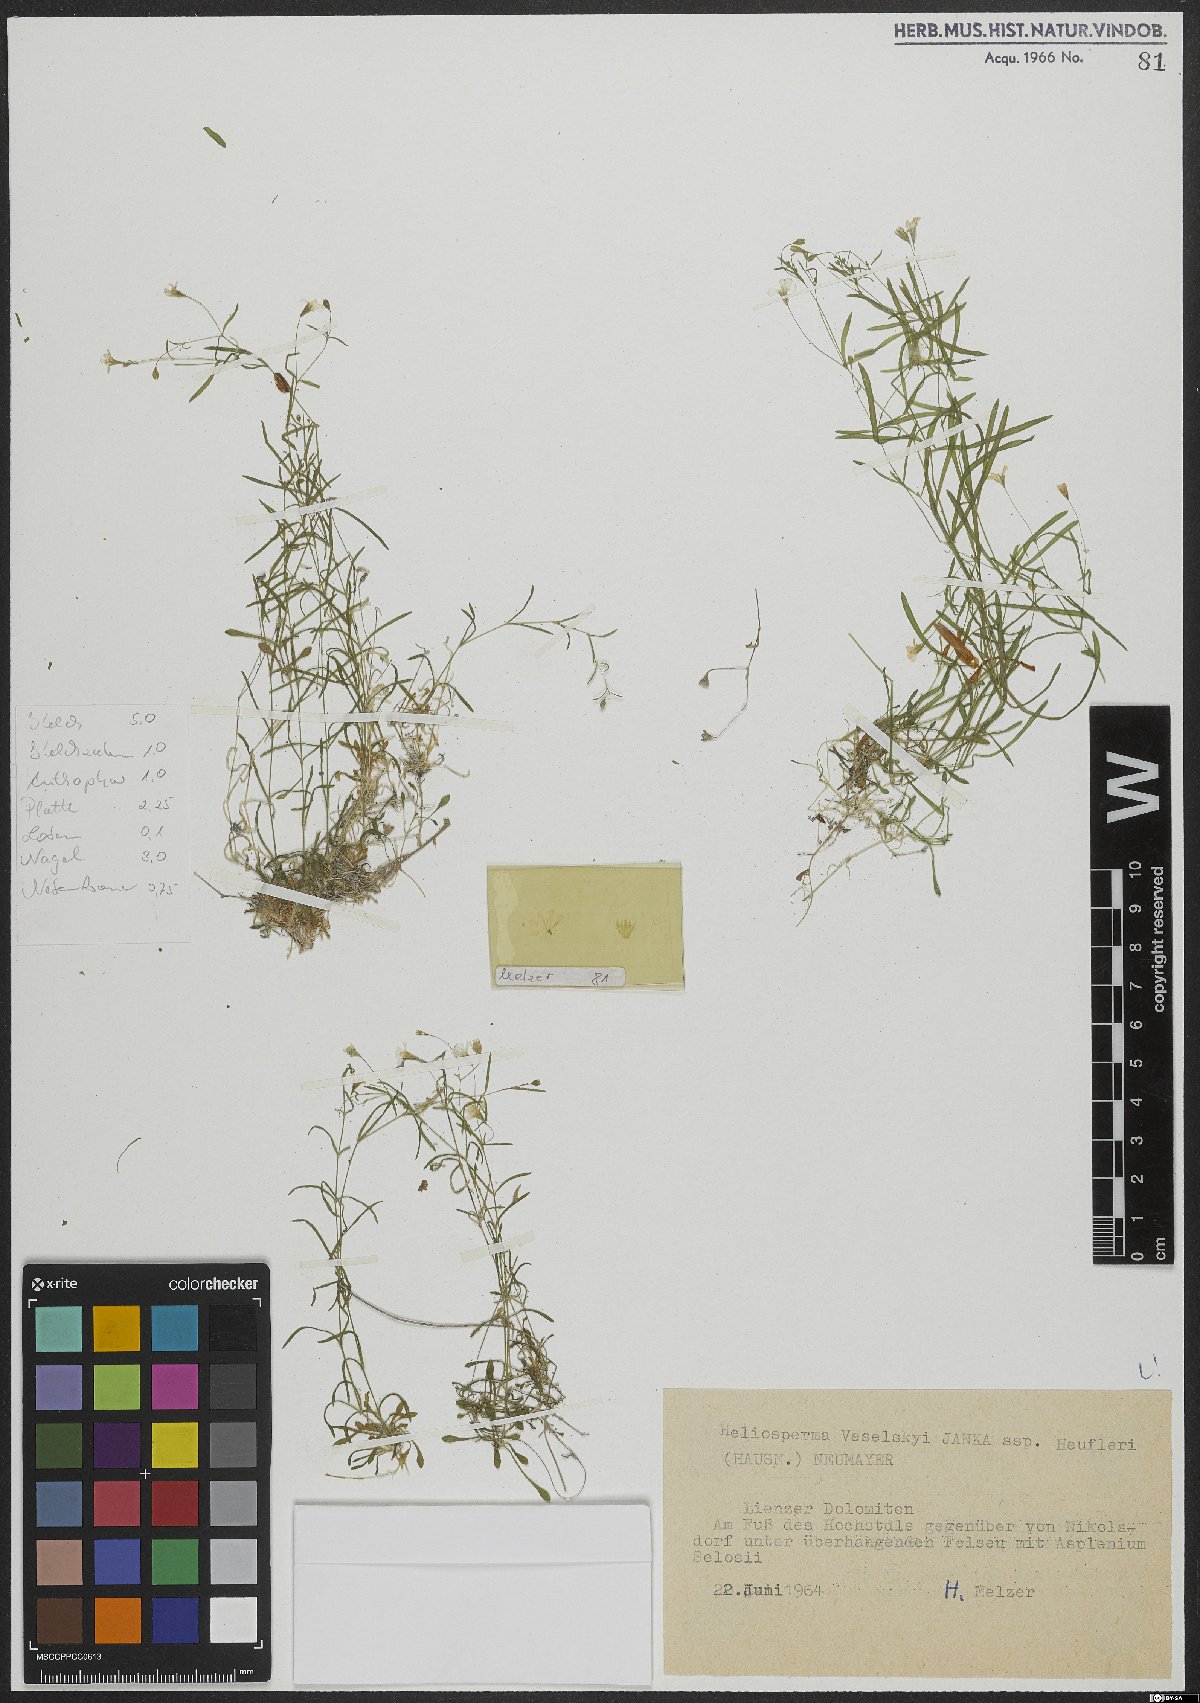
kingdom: Plantae
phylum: Tracheophyta
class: Magnoliopsida
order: Caryophyllales
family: Caryophyllaceae
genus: Heliosperma
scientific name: Heliosperma veselskyi
